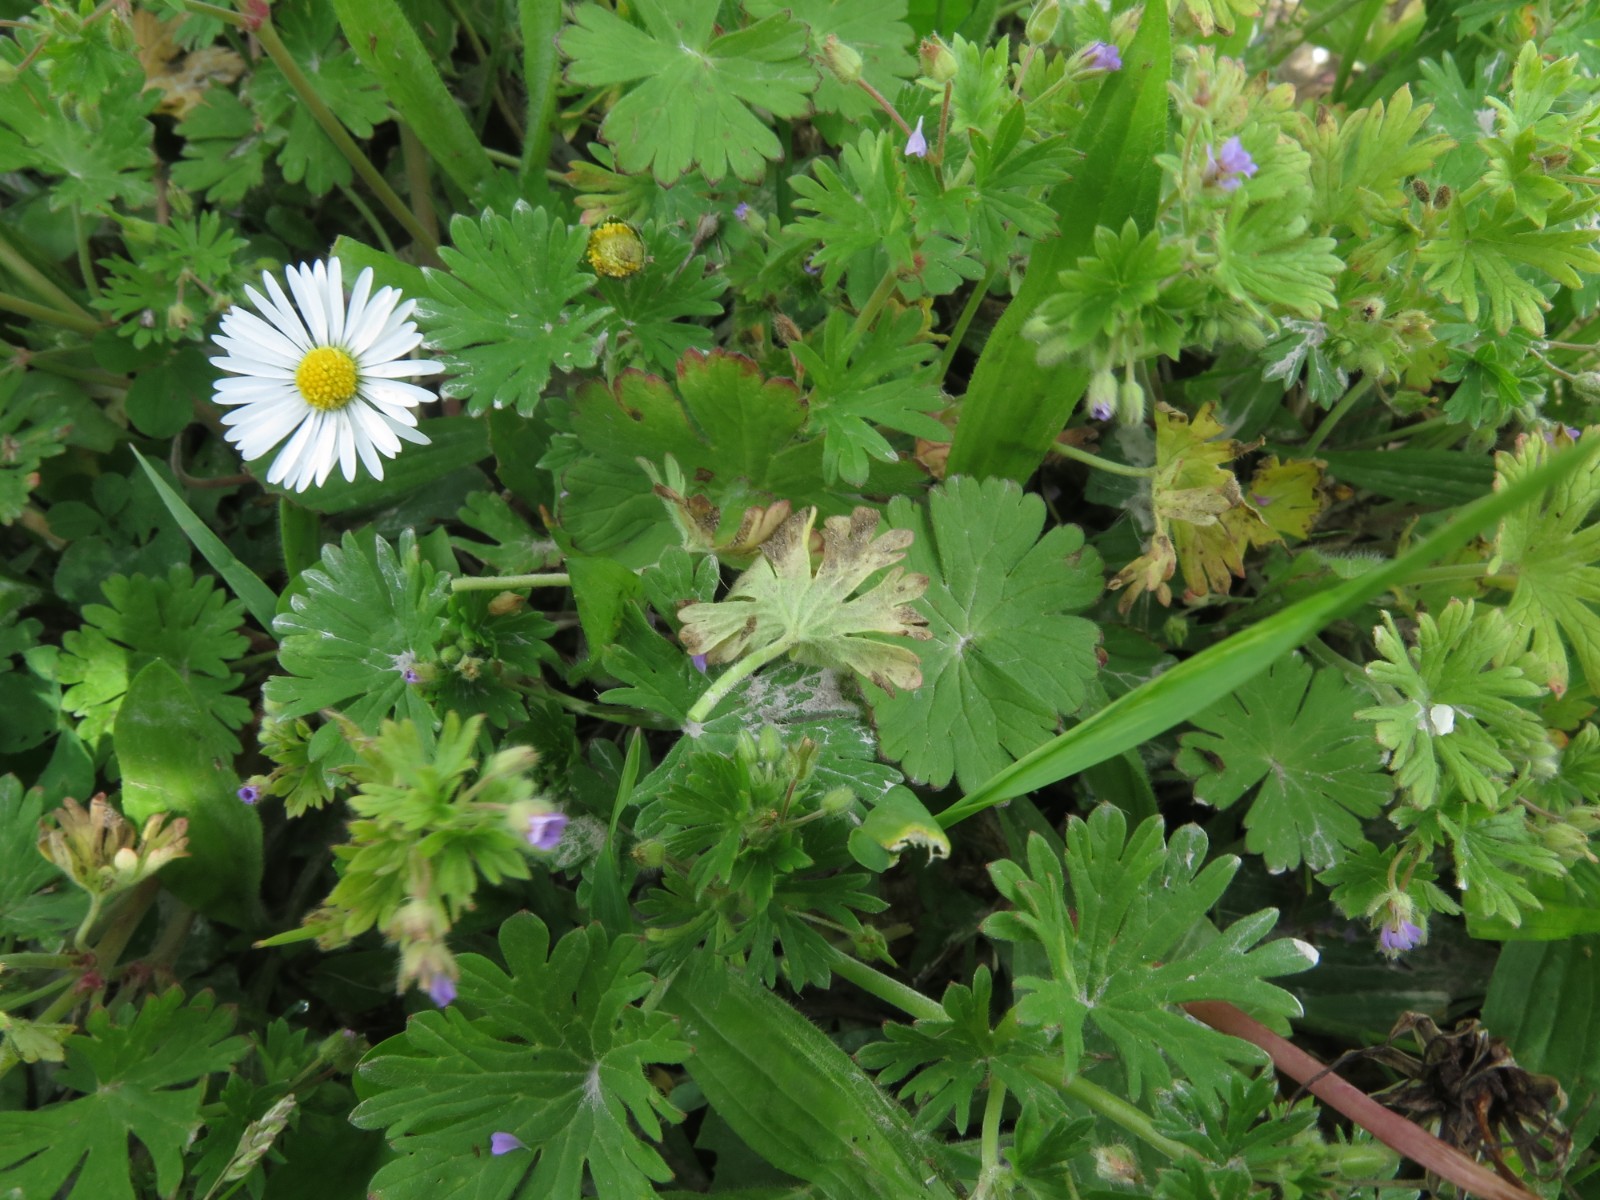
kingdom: Chromista
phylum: Oomycota
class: Peronosporea
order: Peronosporales
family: Peronosporaceae
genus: Peronospora
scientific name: Peronospora conglomerata
